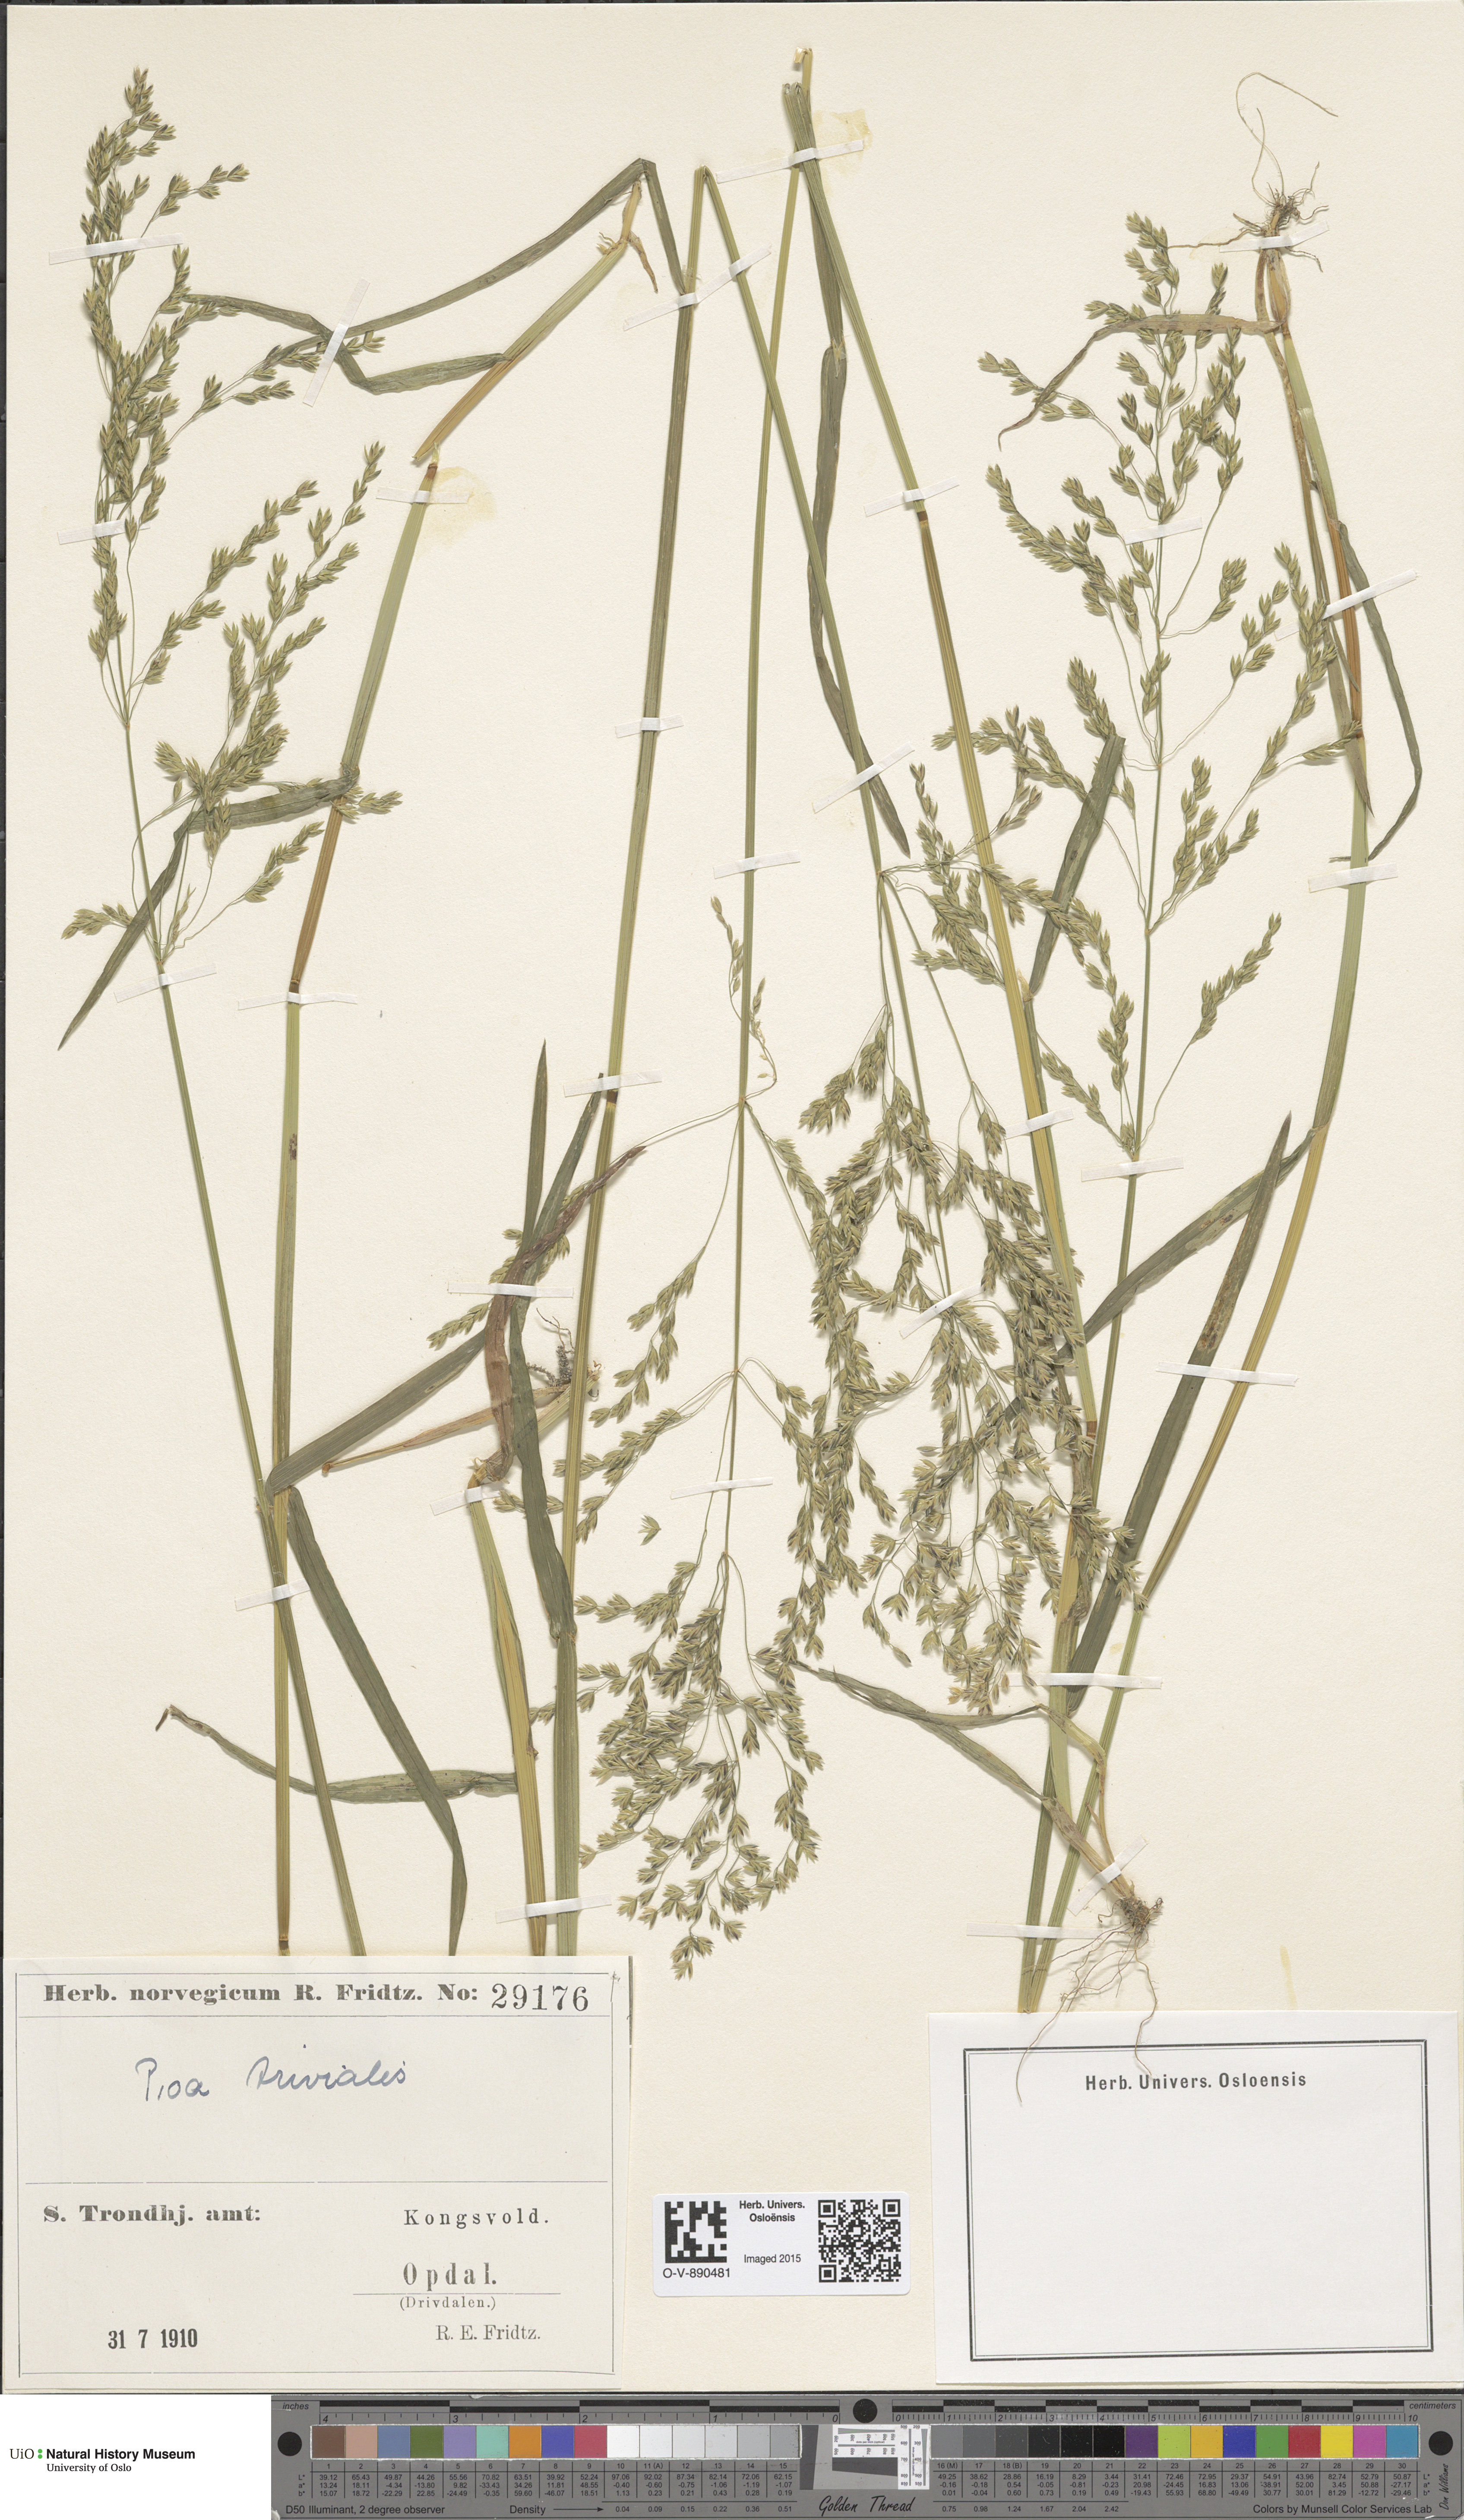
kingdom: Plantae
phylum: Tracheophyta
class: Liliopsida
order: Poales
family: Poaceae
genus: Poa
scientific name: Poa trivialis
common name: Rough bluegrass
